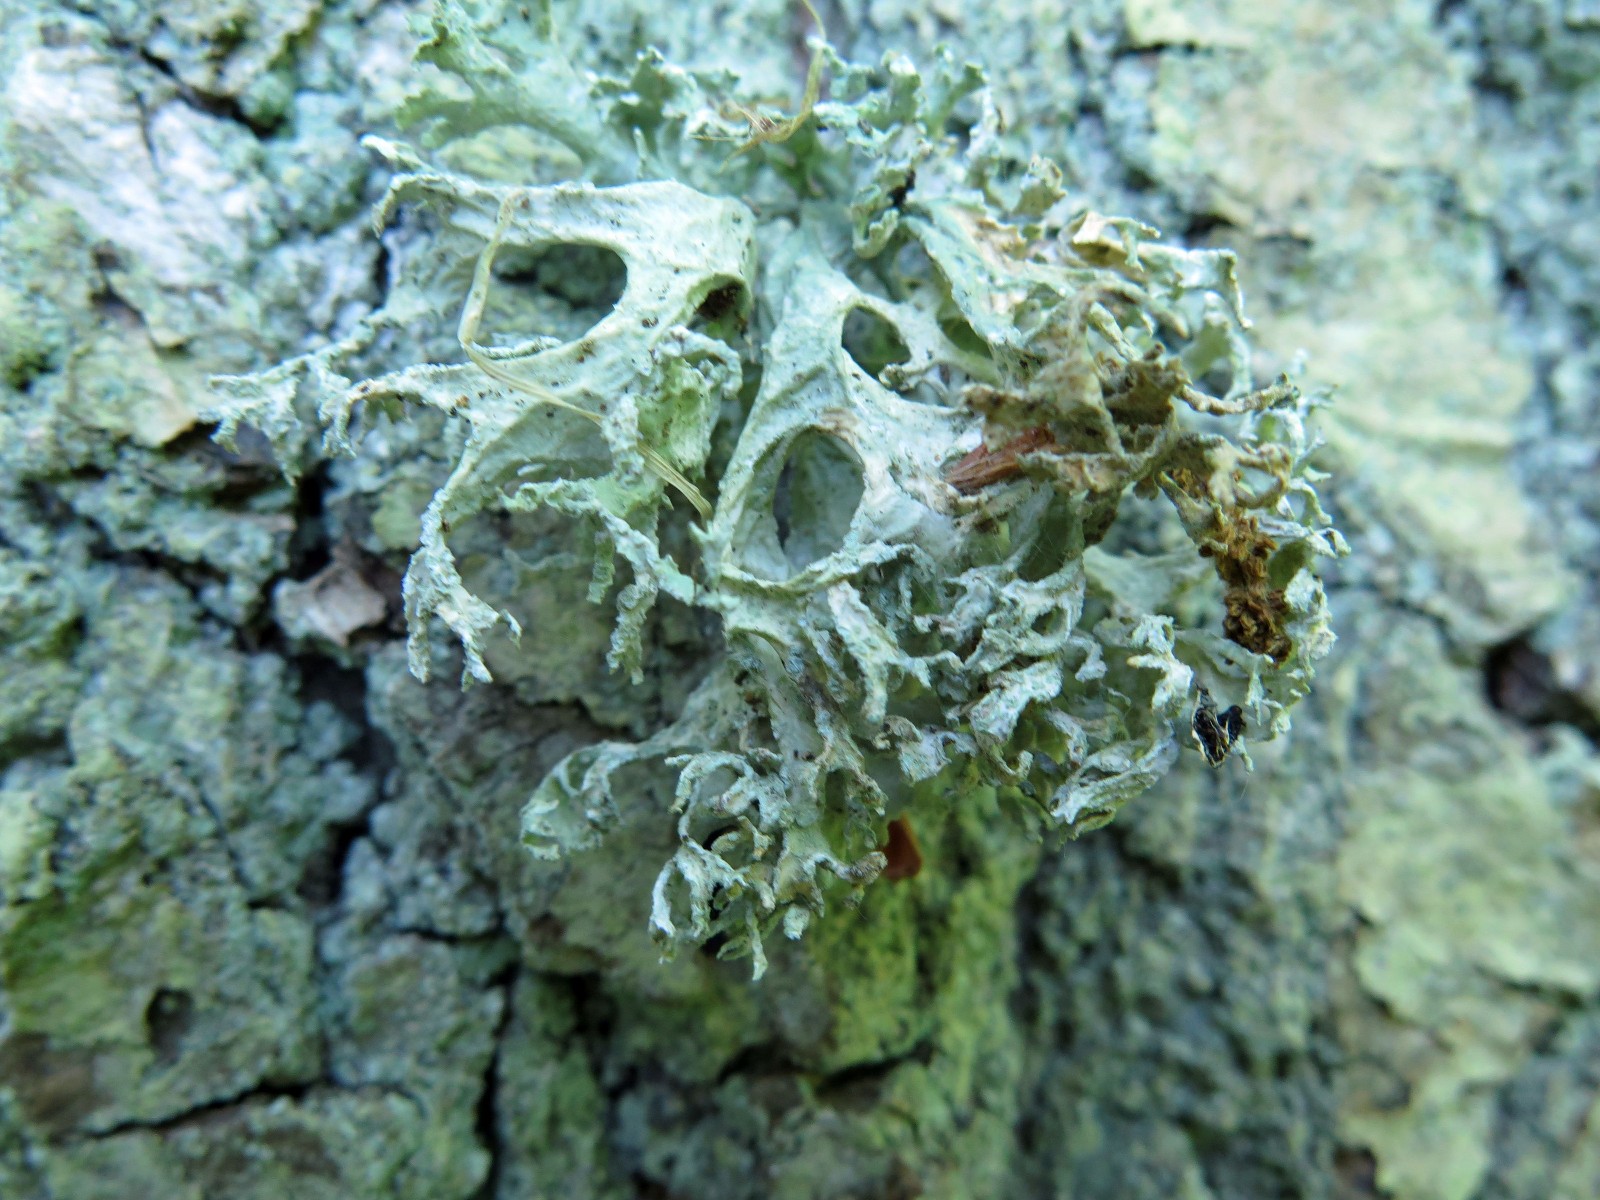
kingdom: Fungi
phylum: Ascomycota
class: Lecanoromycetes
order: Lecanorales
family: Parmeliaceae
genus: Evernia
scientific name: Evernia prunastri
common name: almindelig slåenlav
